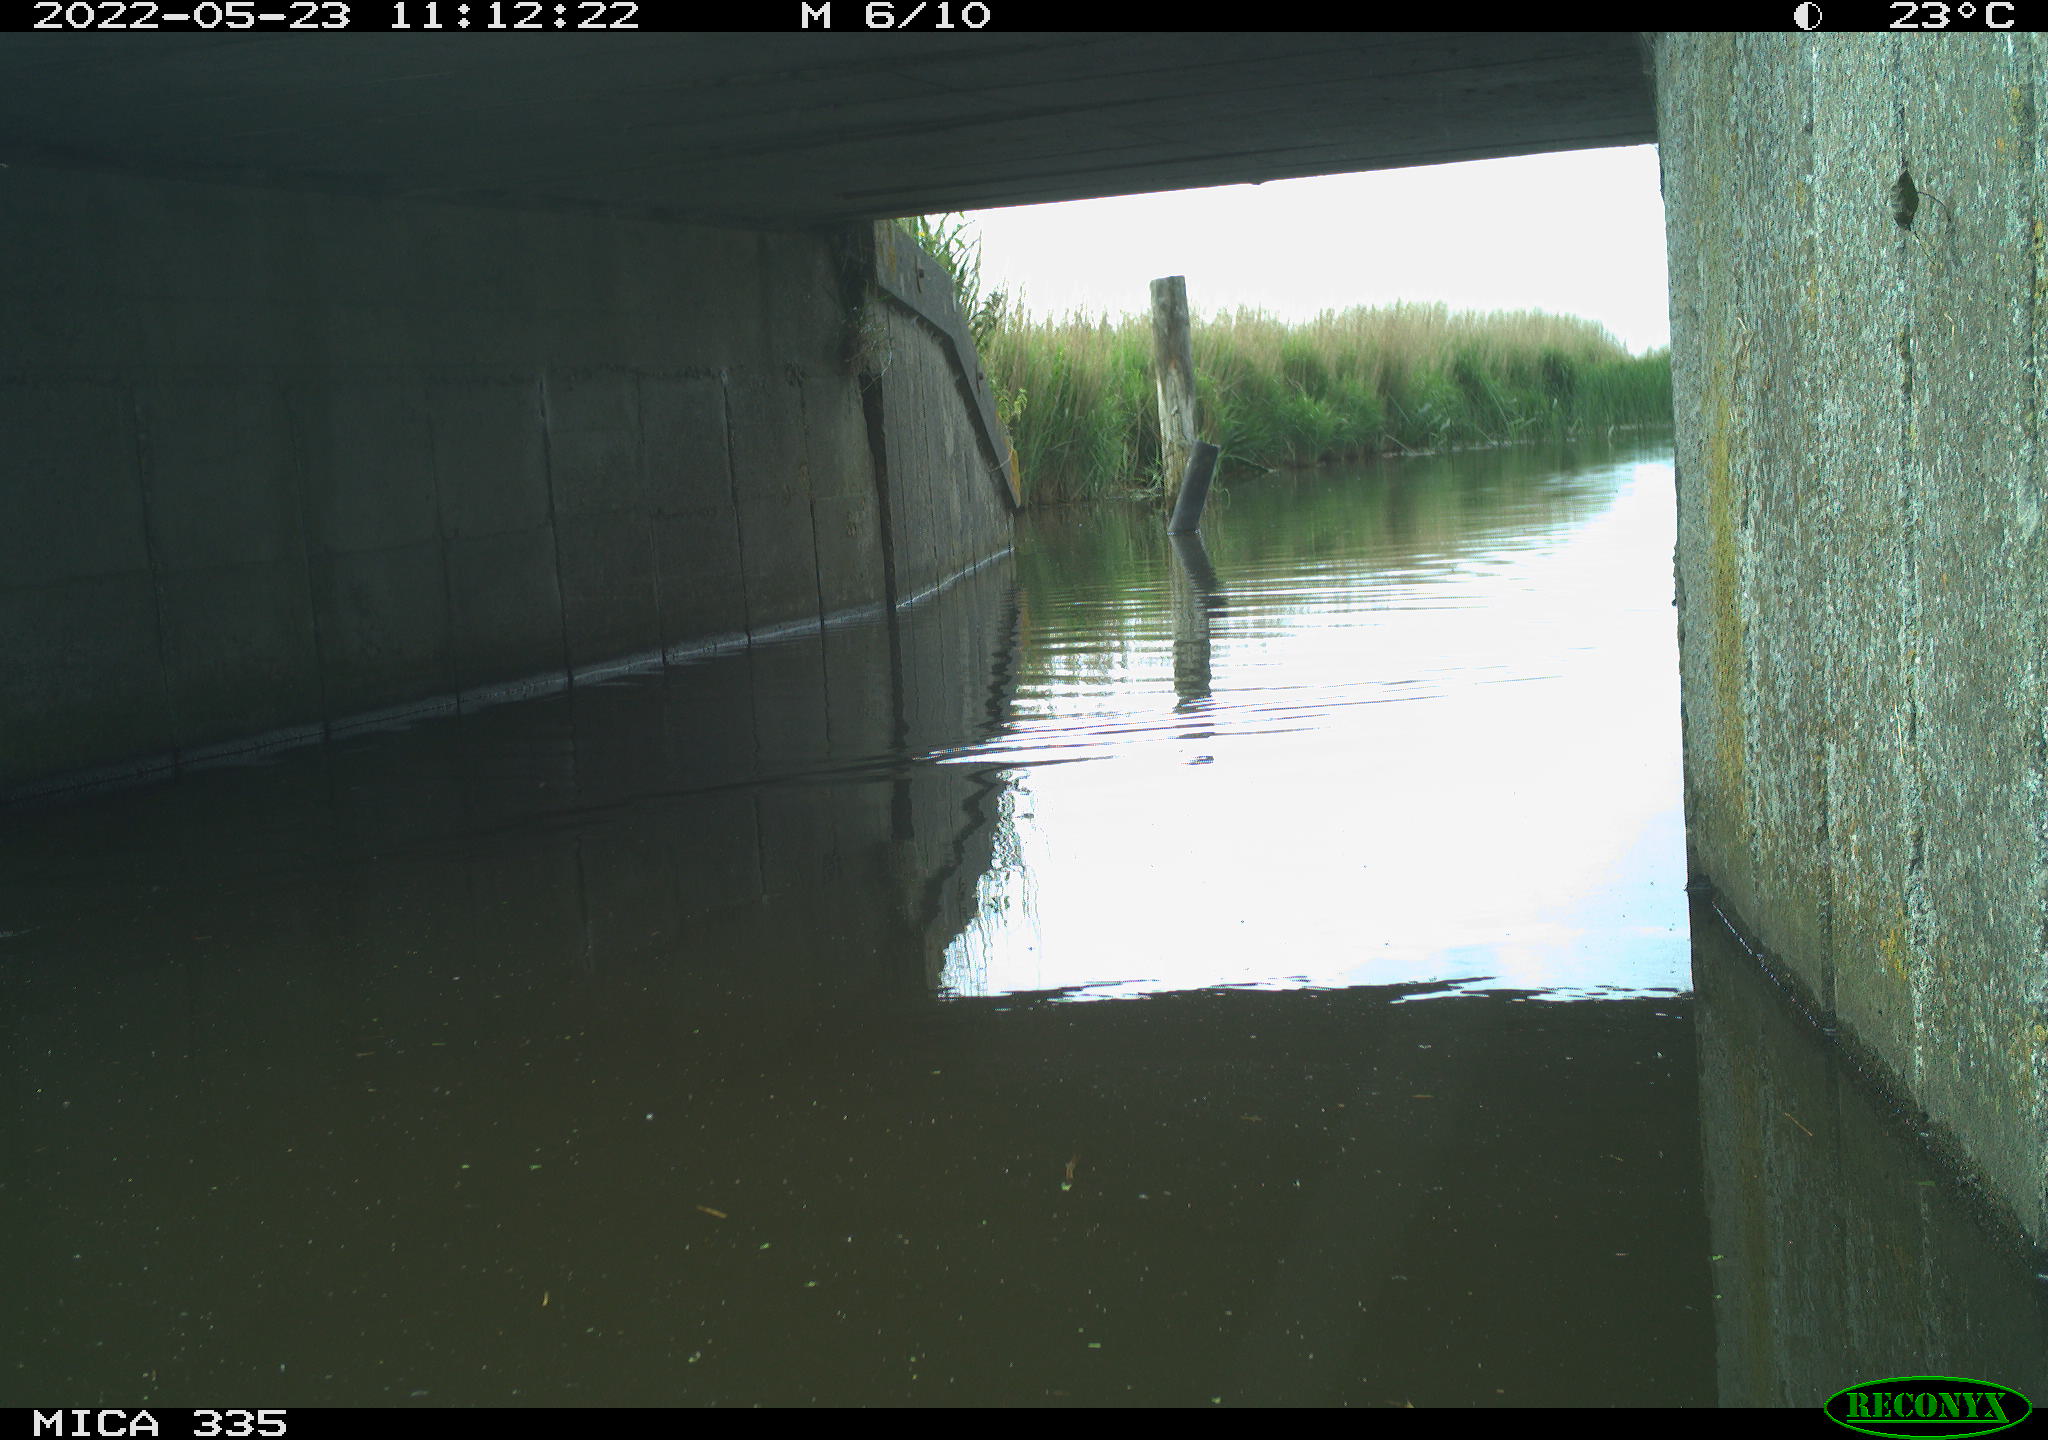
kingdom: Animalia
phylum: Chordata
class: Aves
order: Anseriformes
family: Anatidae
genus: Anas
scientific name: Anas platyrhynchos
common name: Mallard
